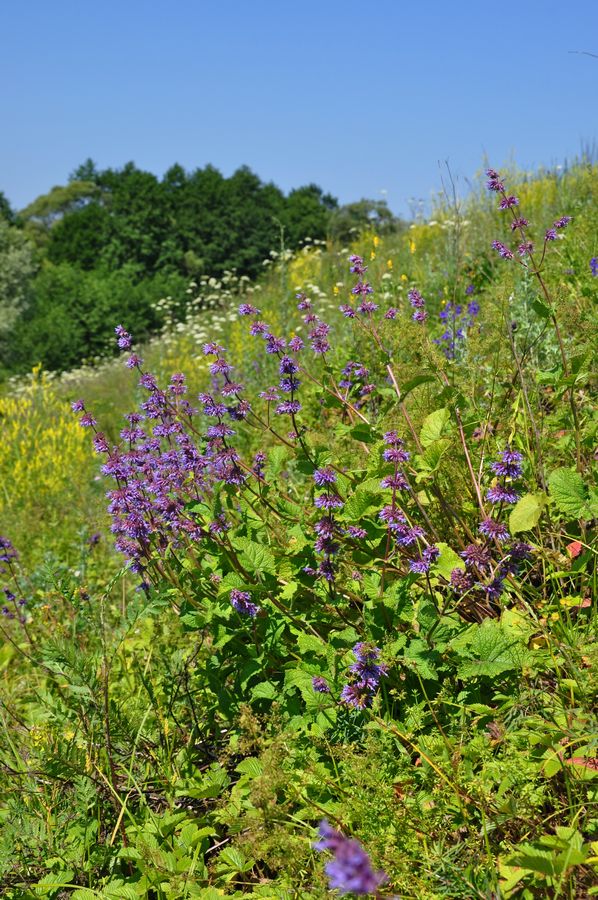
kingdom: Plantae
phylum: Tracheophyta
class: Magnoliopsida
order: Lamiales
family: Lamiaceae
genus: Salvia
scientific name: Salvia verticillata
